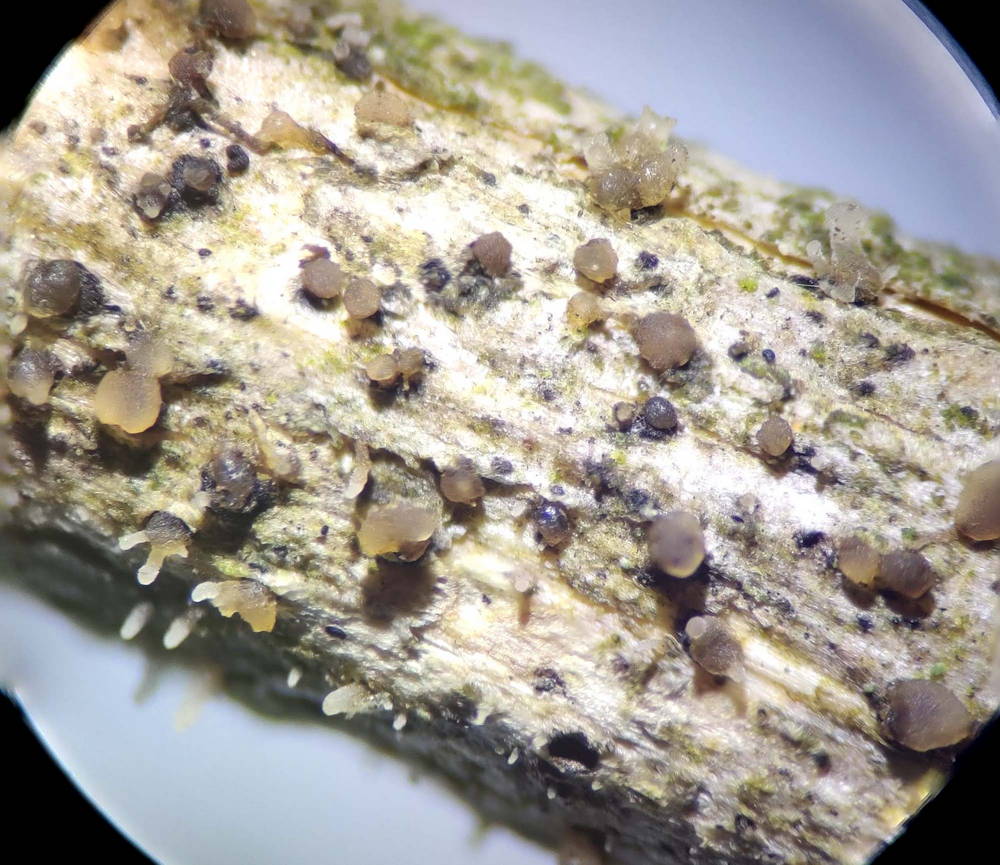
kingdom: Fungi
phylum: Ascomycota
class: Sordariomycetes
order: Hypocreales
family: Cordycipitaceae
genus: Isaria
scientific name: Isaria friesii
